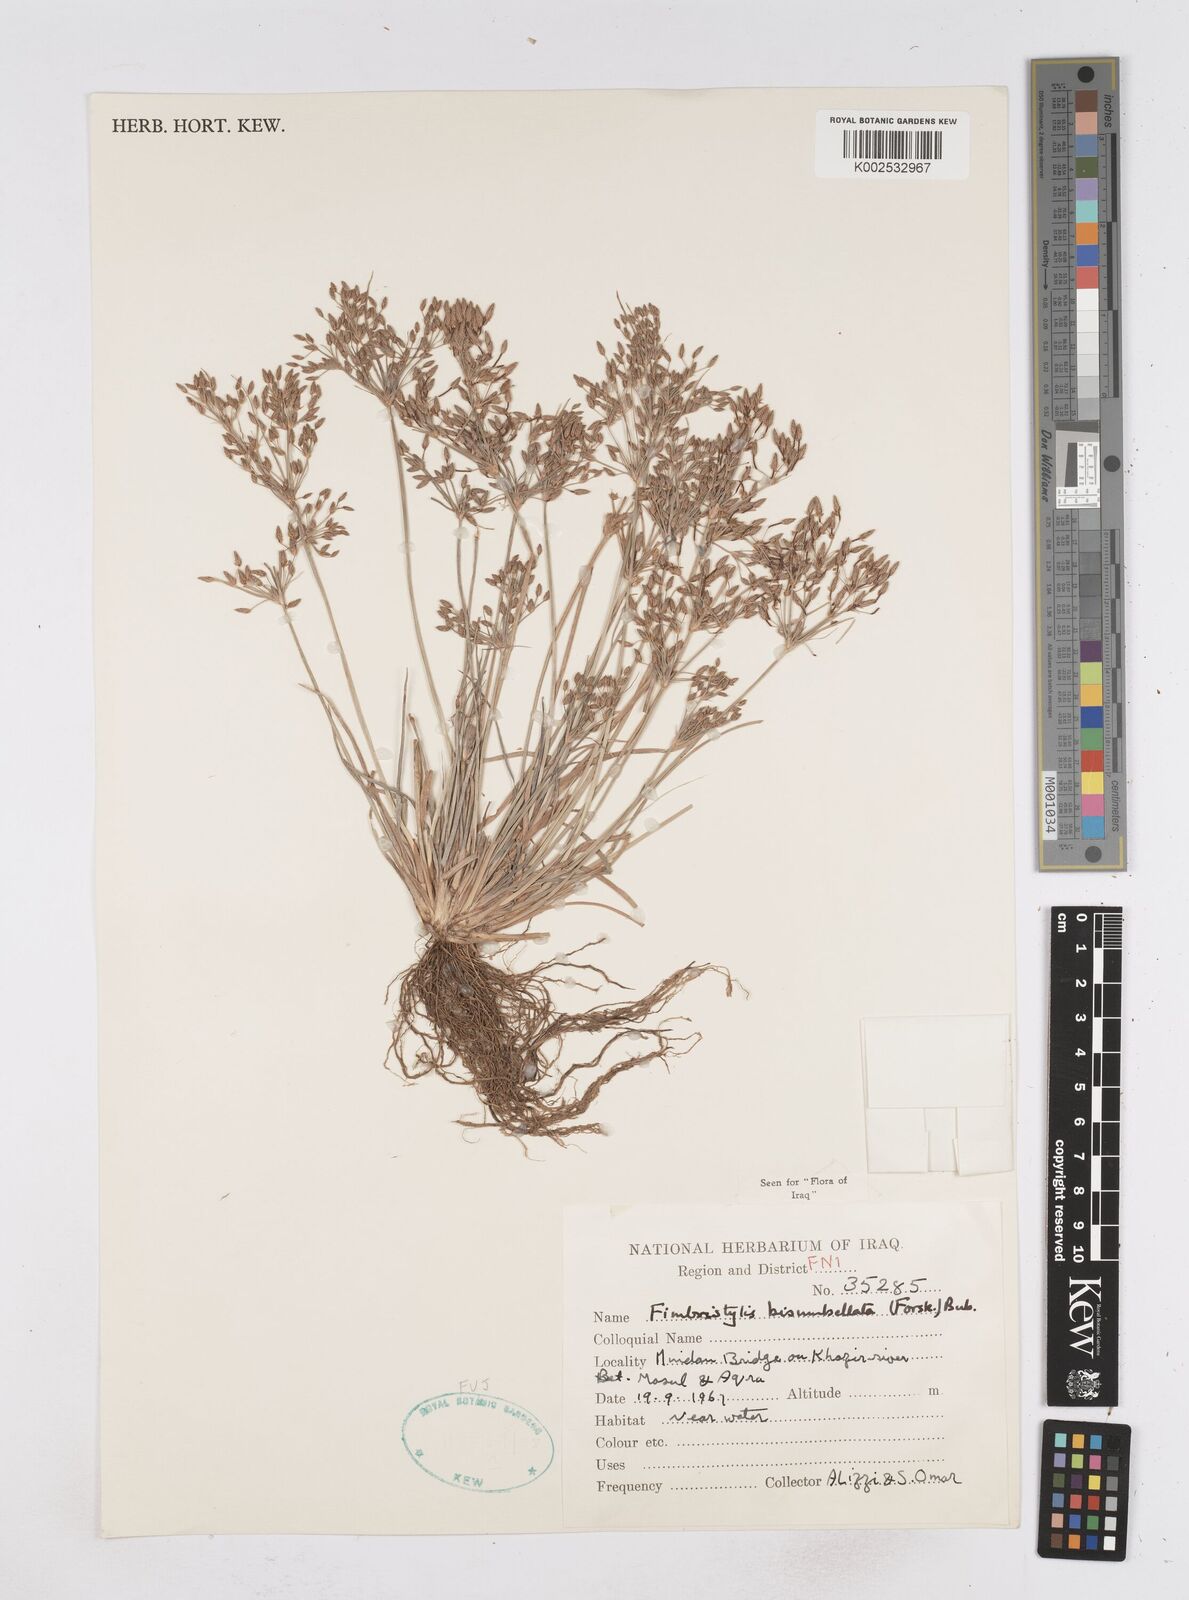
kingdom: Plantae
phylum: Tracheophyta
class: Liliopsida
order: Poales
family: Cyperaceae
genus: Fimbristylis
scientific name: Fimbristylis bisumbellata
